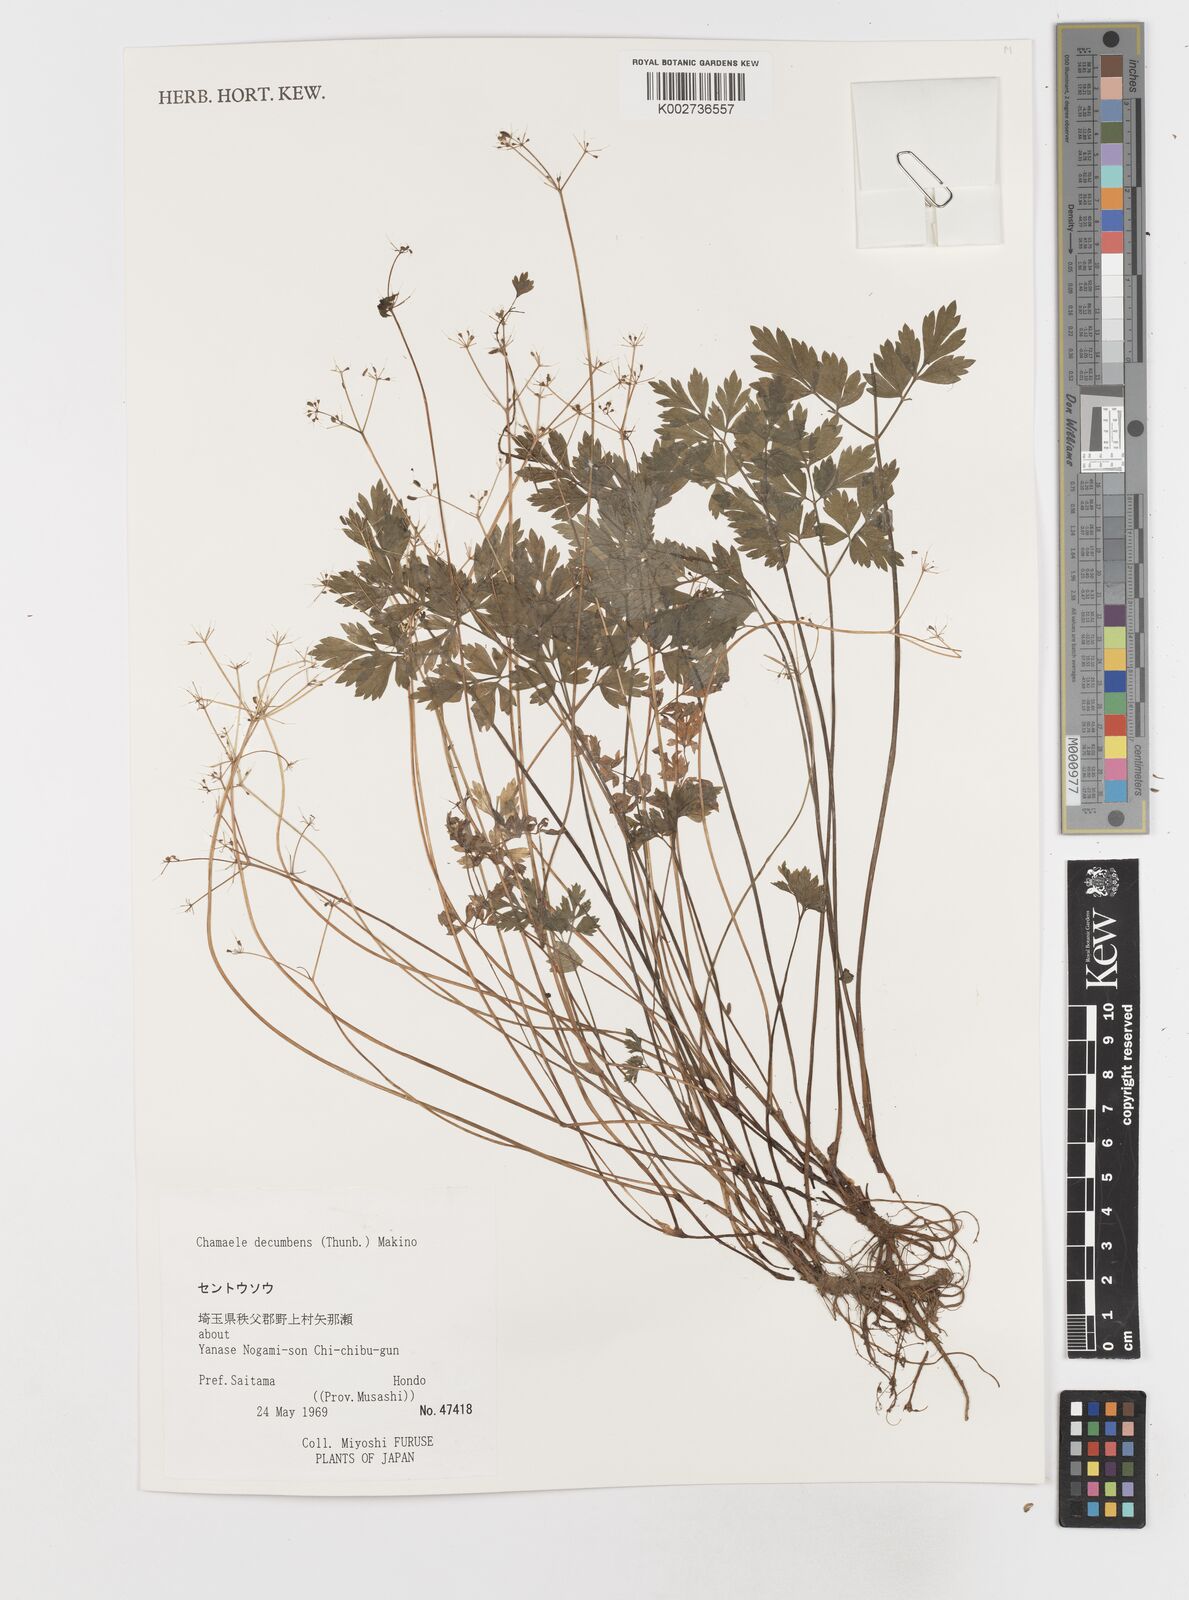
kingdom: Plantae
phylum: Tracheophyta
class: Magnoliopsida
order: Apiales
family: Apiaceae
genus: Aegopodium
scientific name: Aegopodium decumbens
